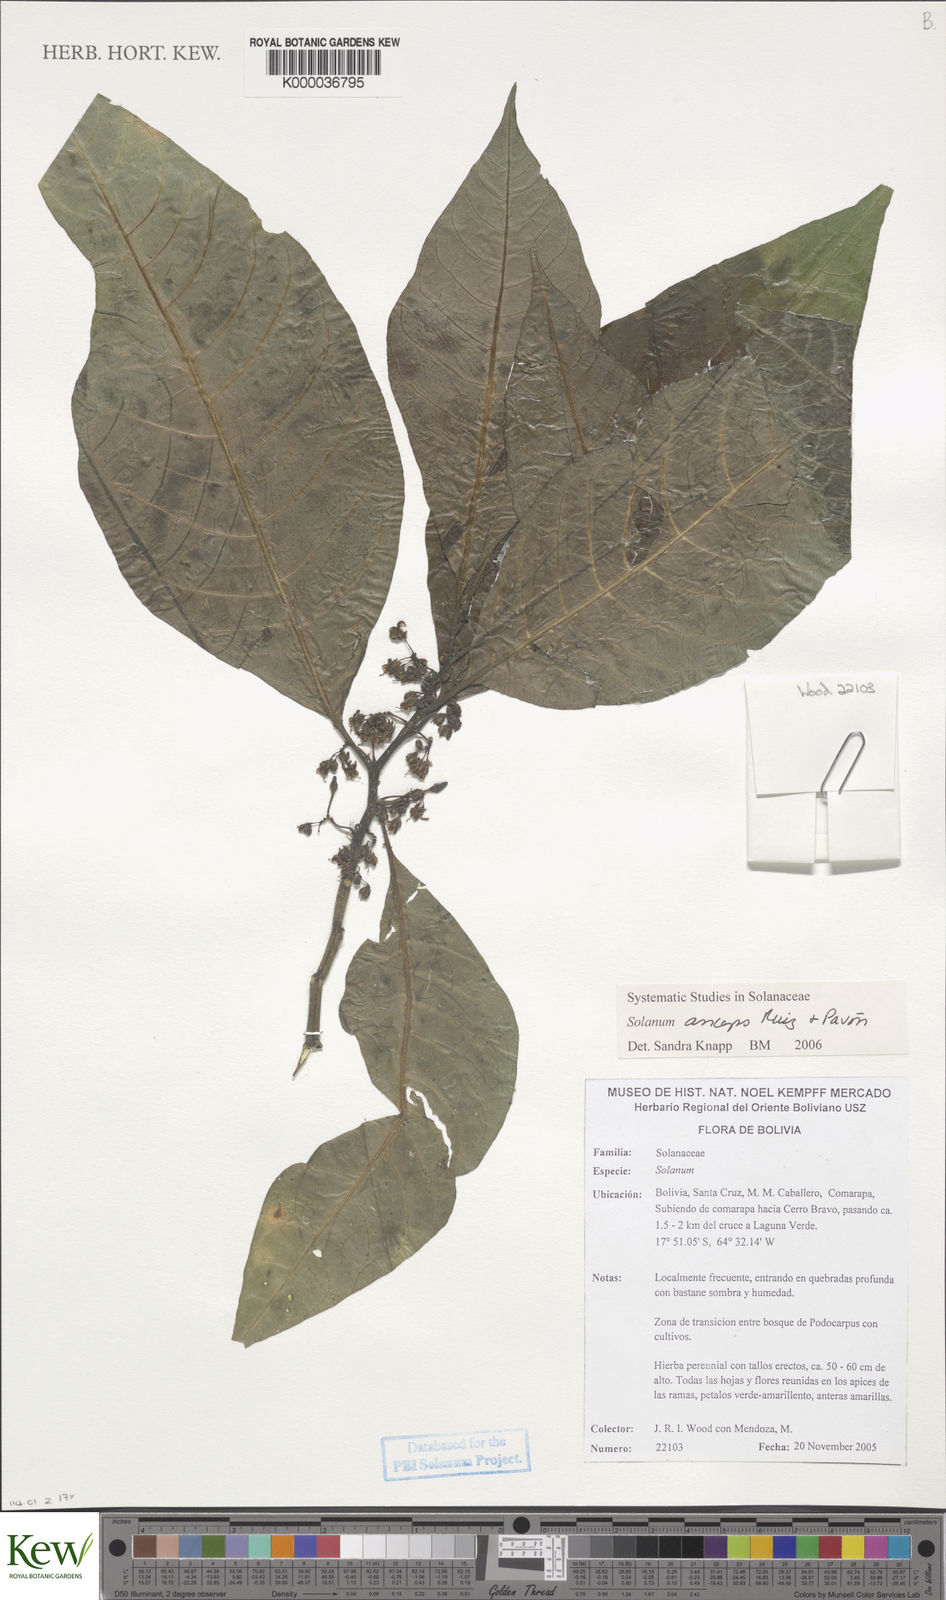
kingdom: Plantae
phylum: Tracheophyta
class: Magnoliopsida
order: Solanales
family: Solanaceae
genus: Solanum
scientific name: Solanum anceps
